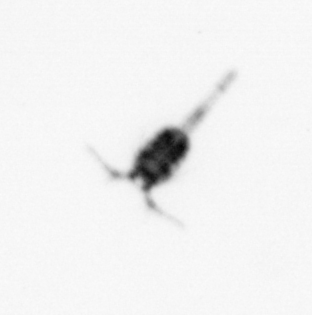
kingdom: Animalia
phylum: Arthropoda
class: Maxillopoda
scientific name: Maxillopoda
